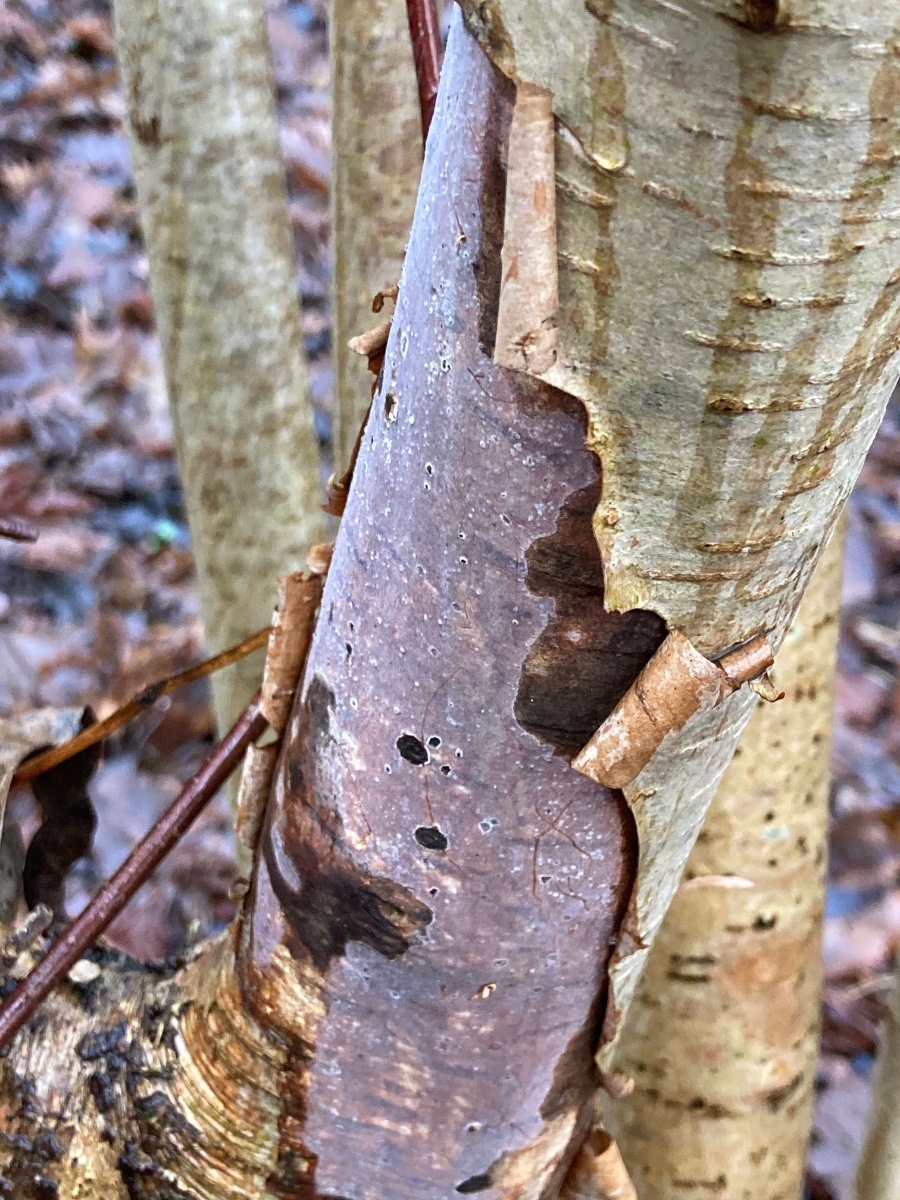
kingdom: Fungi
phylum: Basidiomycota
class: Agaricomycetes
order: Corticiales
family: Vuilleminiaceae
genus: Vuilleminia
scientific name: Vuilleminia coryli
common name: hassel-barksprænger
